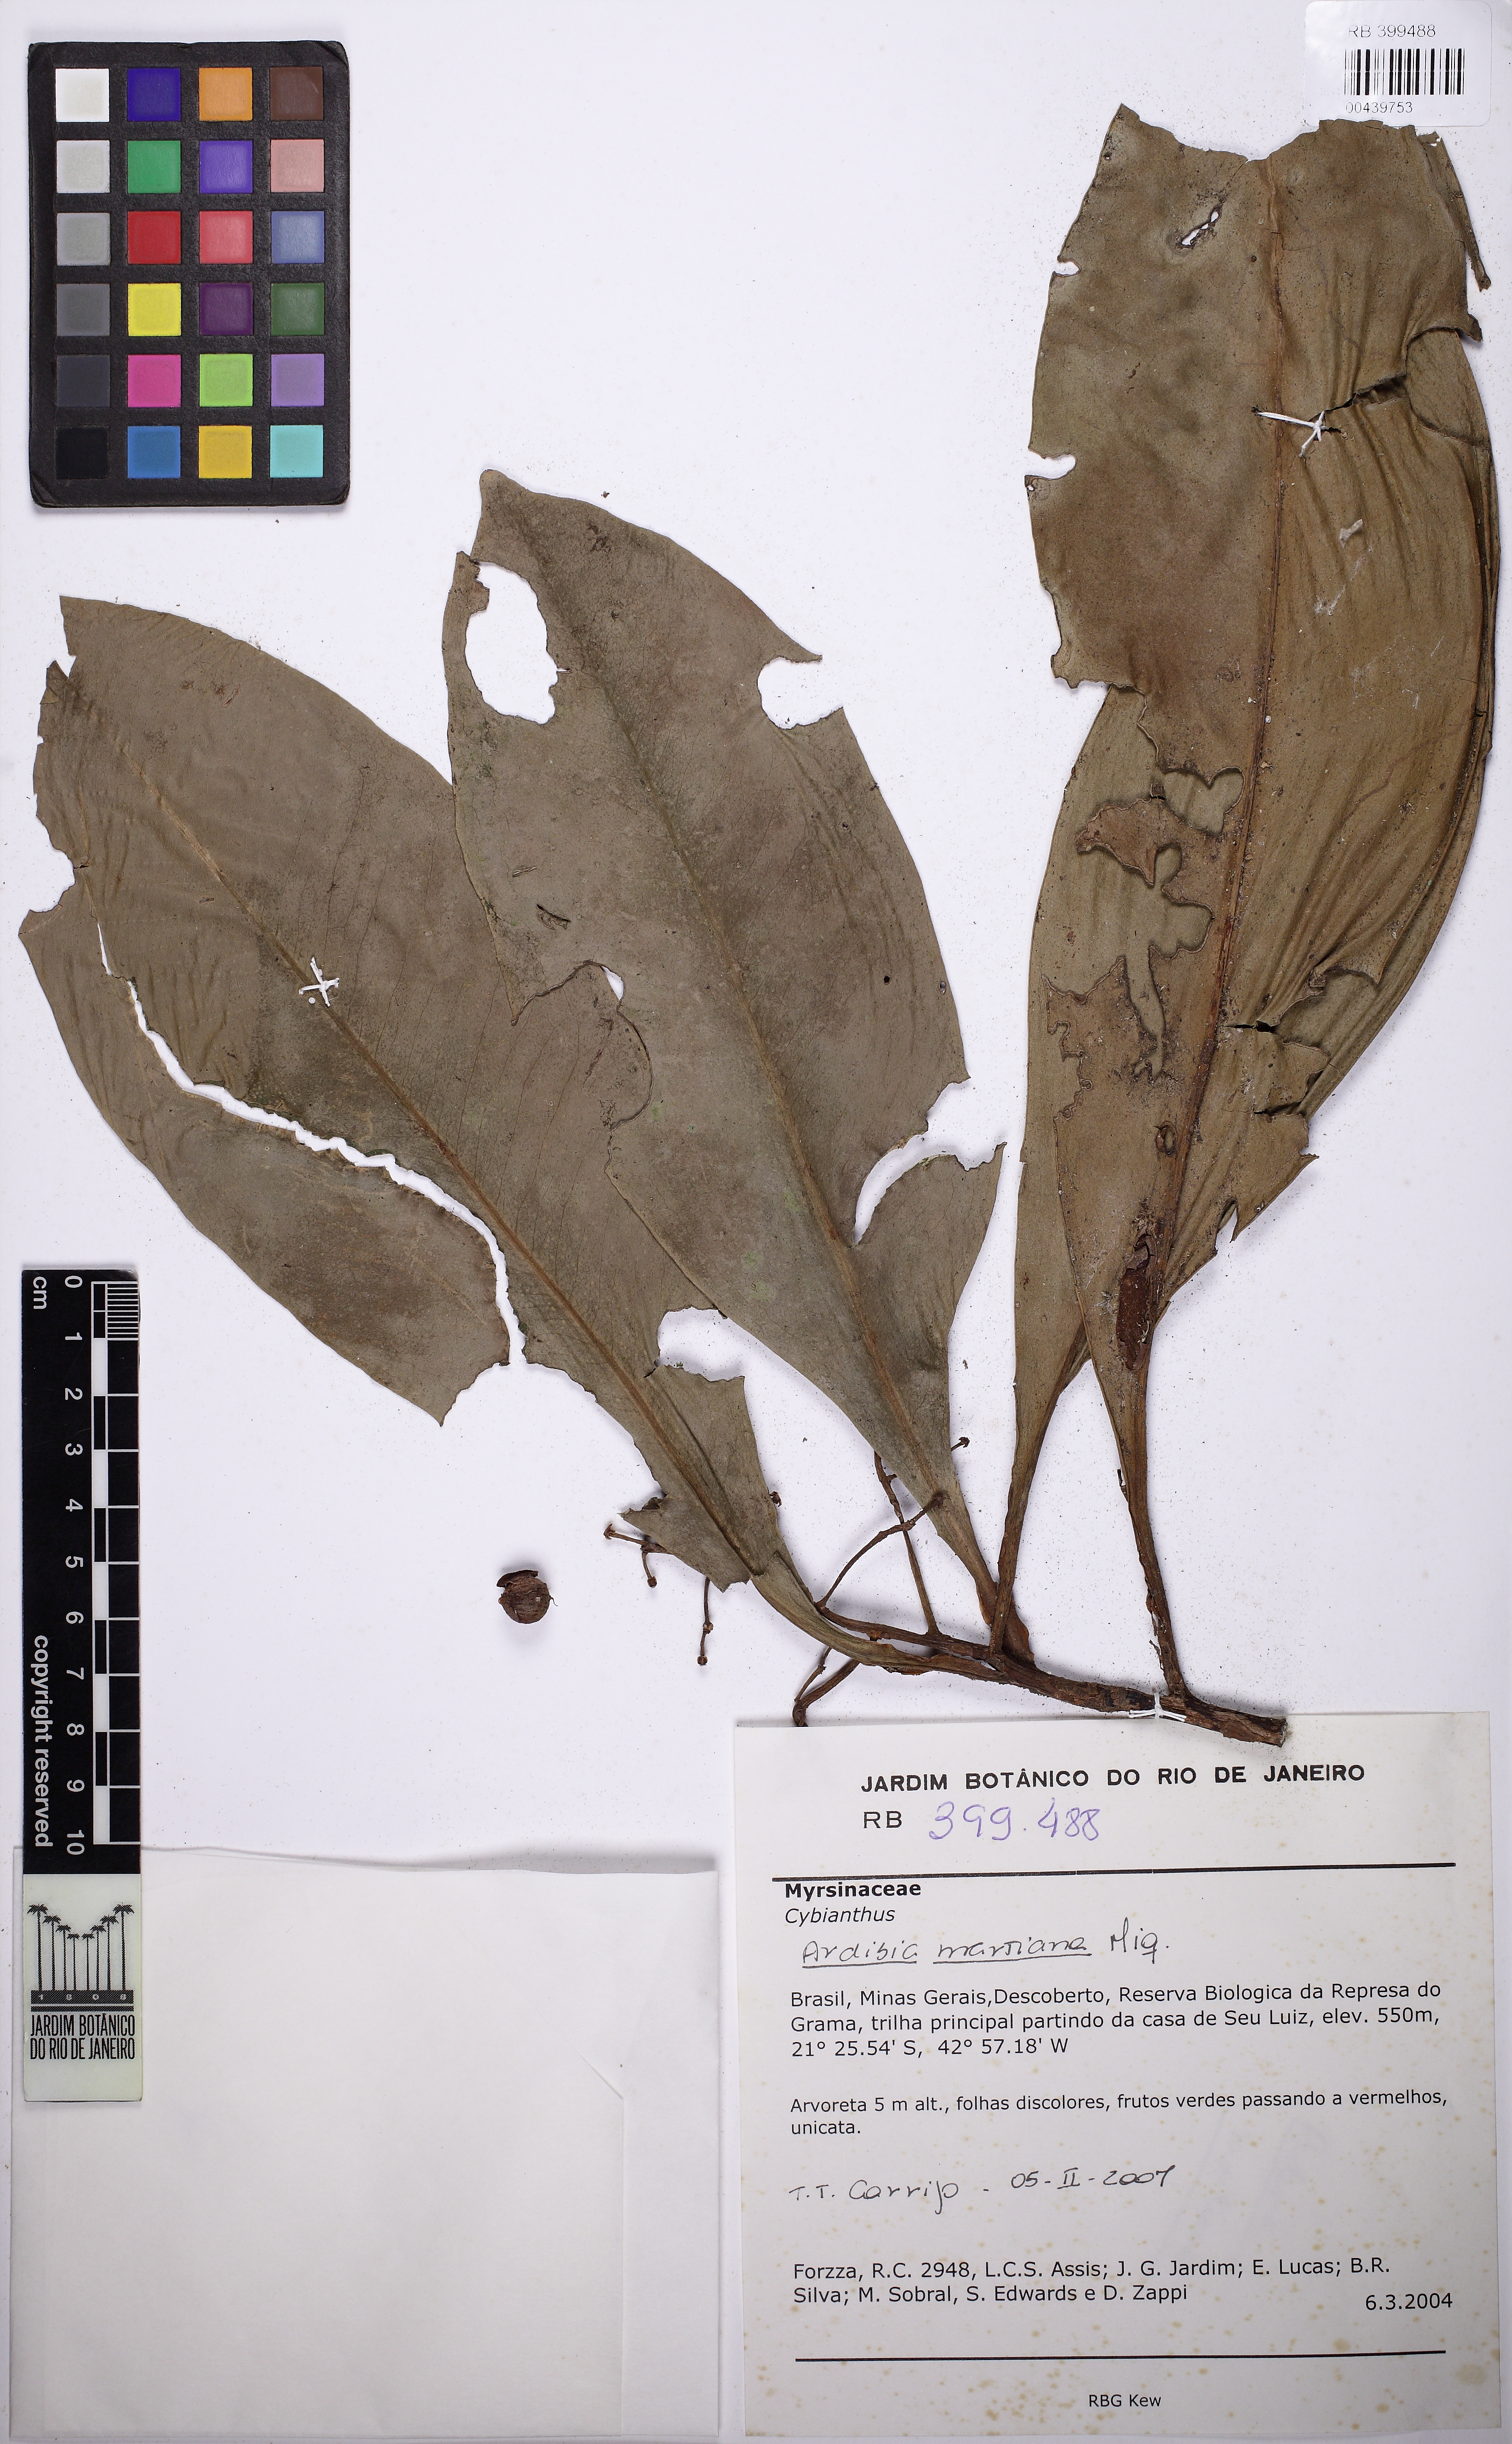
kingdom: Plantae
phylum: Tracheophyta
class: Magnoliopsida
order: Ericales
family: Primulaceae
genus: Stylogyne
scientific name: Stylogyne lhotzkyana
